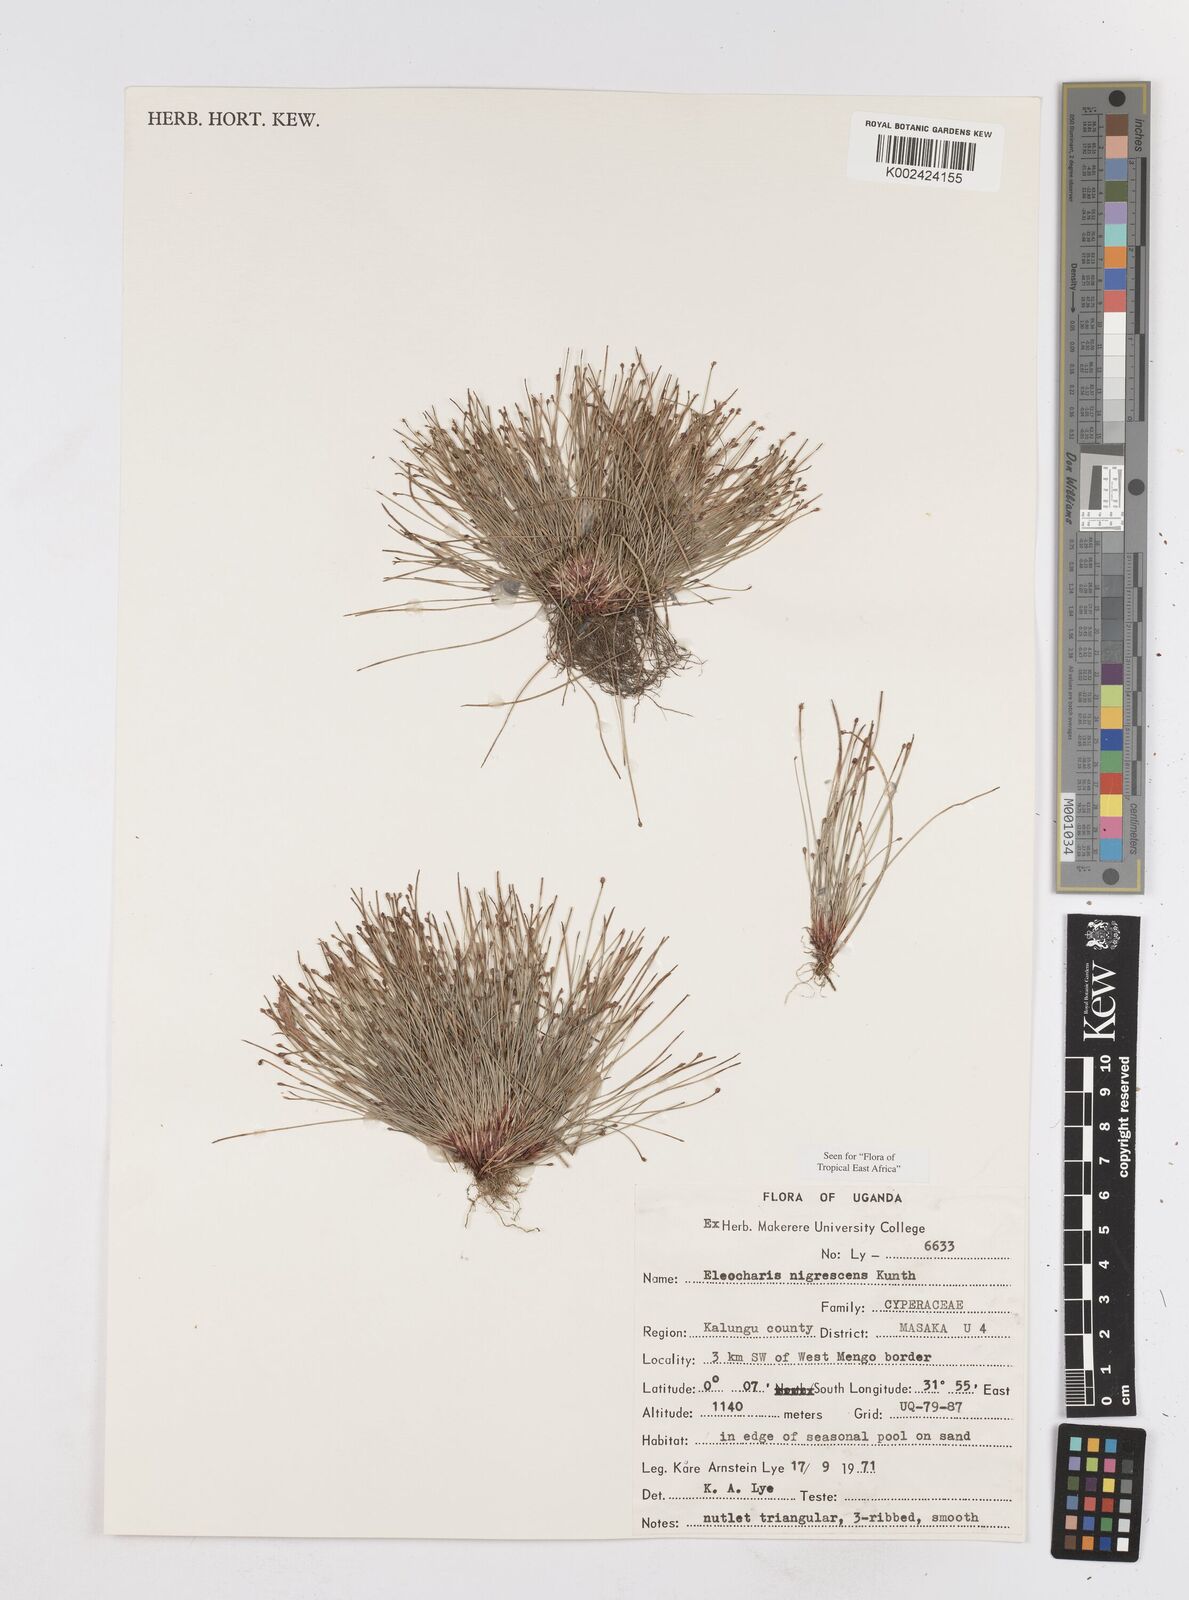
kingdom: Plantae
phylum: Tracheophyta
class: Liliopsida
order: Poales
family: Cyperaceae
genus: Eleocharis
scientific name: Eleocharis nigrescens
